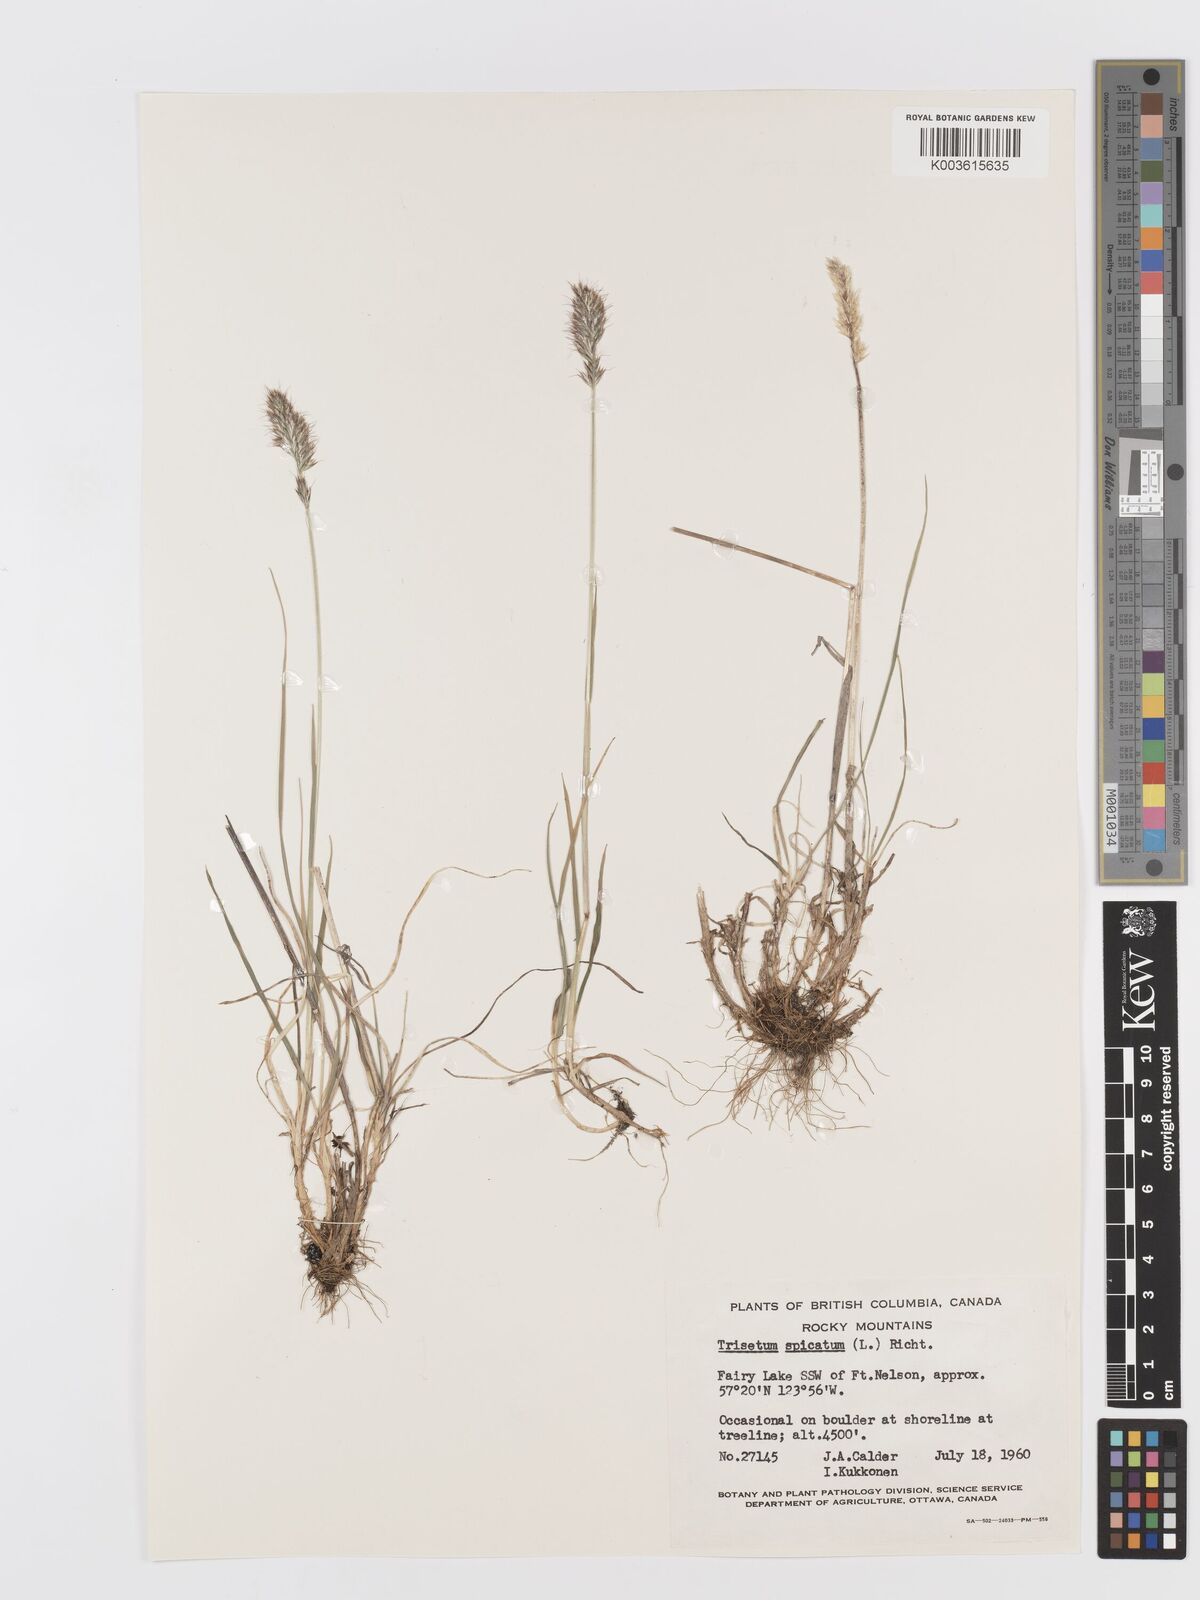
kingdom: Plantae
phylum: Tracheophyta
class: Liliopsida
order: Poales
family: Poaceae
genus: Koeleria
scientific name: Koeleria spicata
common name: Mountain trisetum
